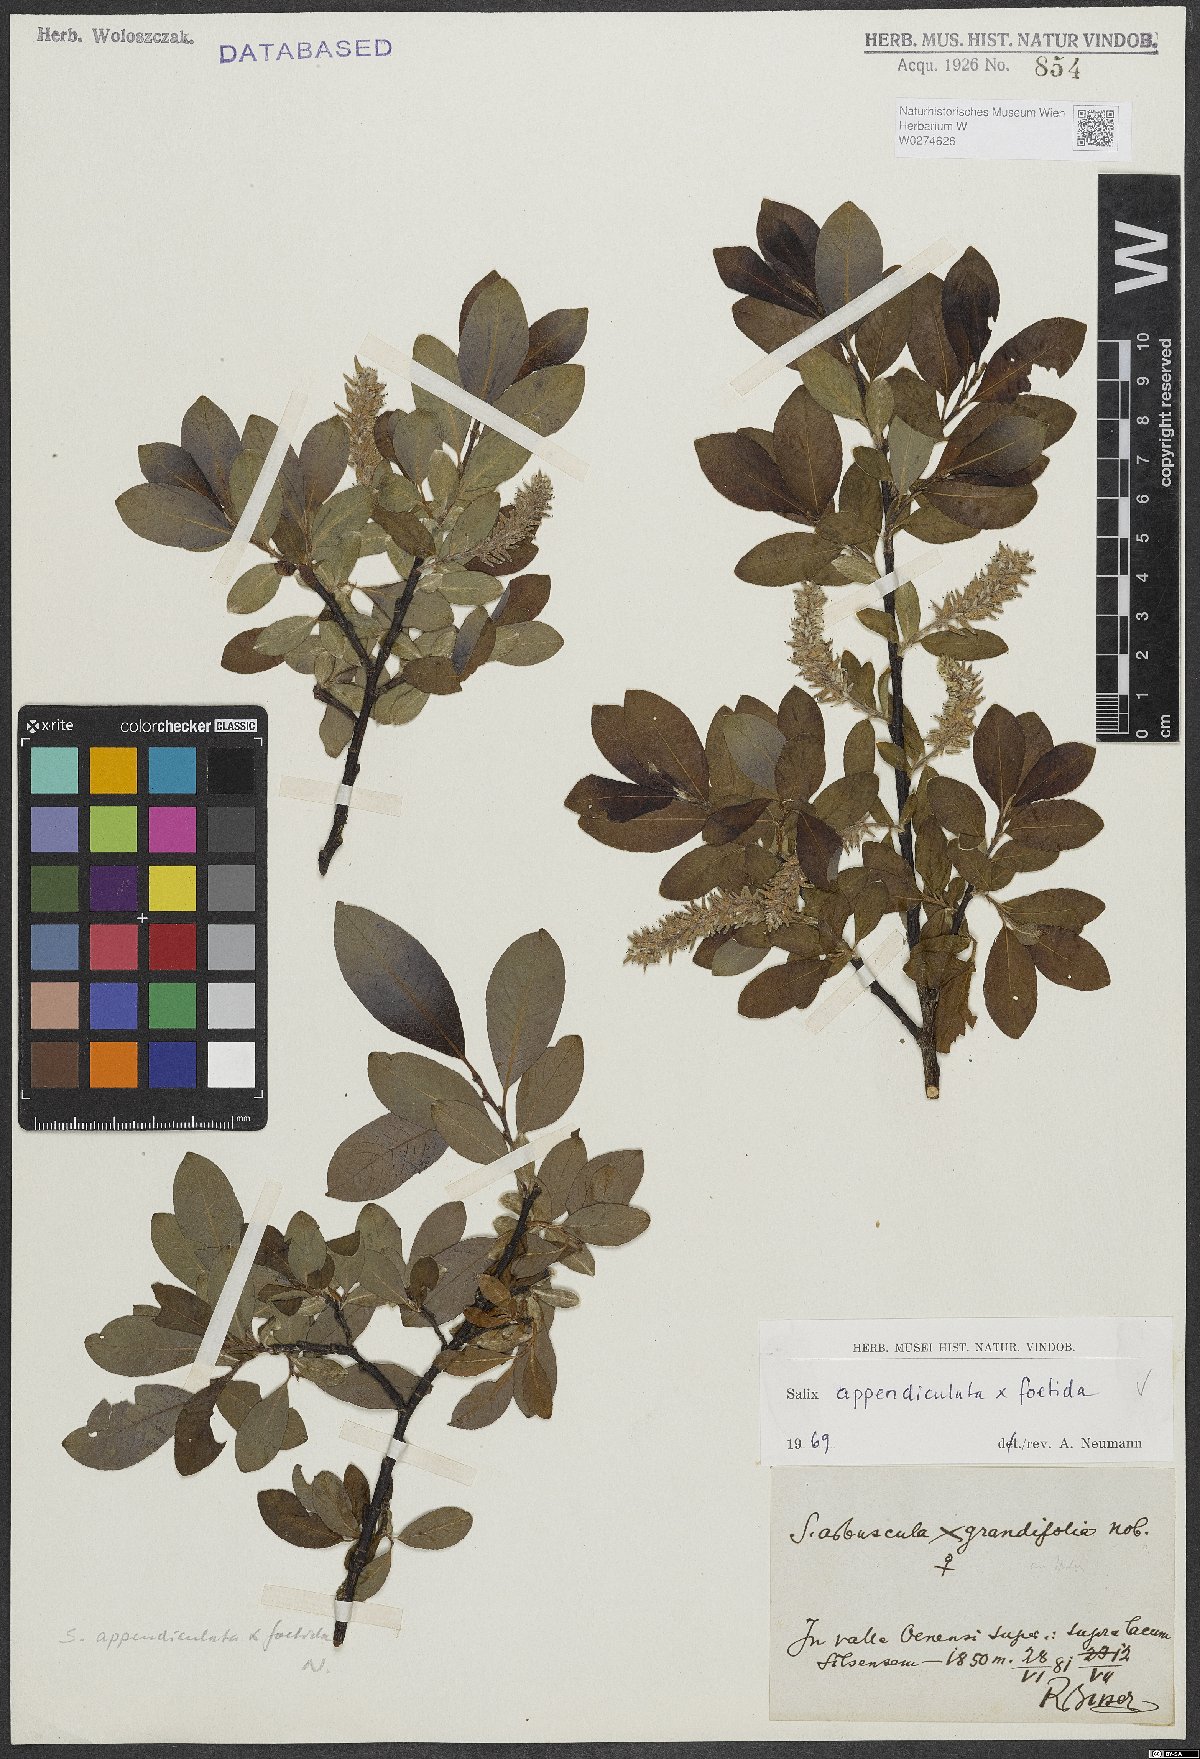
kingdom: Plantae
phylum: Tracheophyta
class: Magnoliopsida
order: Malpighiales
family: Salicaceae
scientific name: Salicaceae
